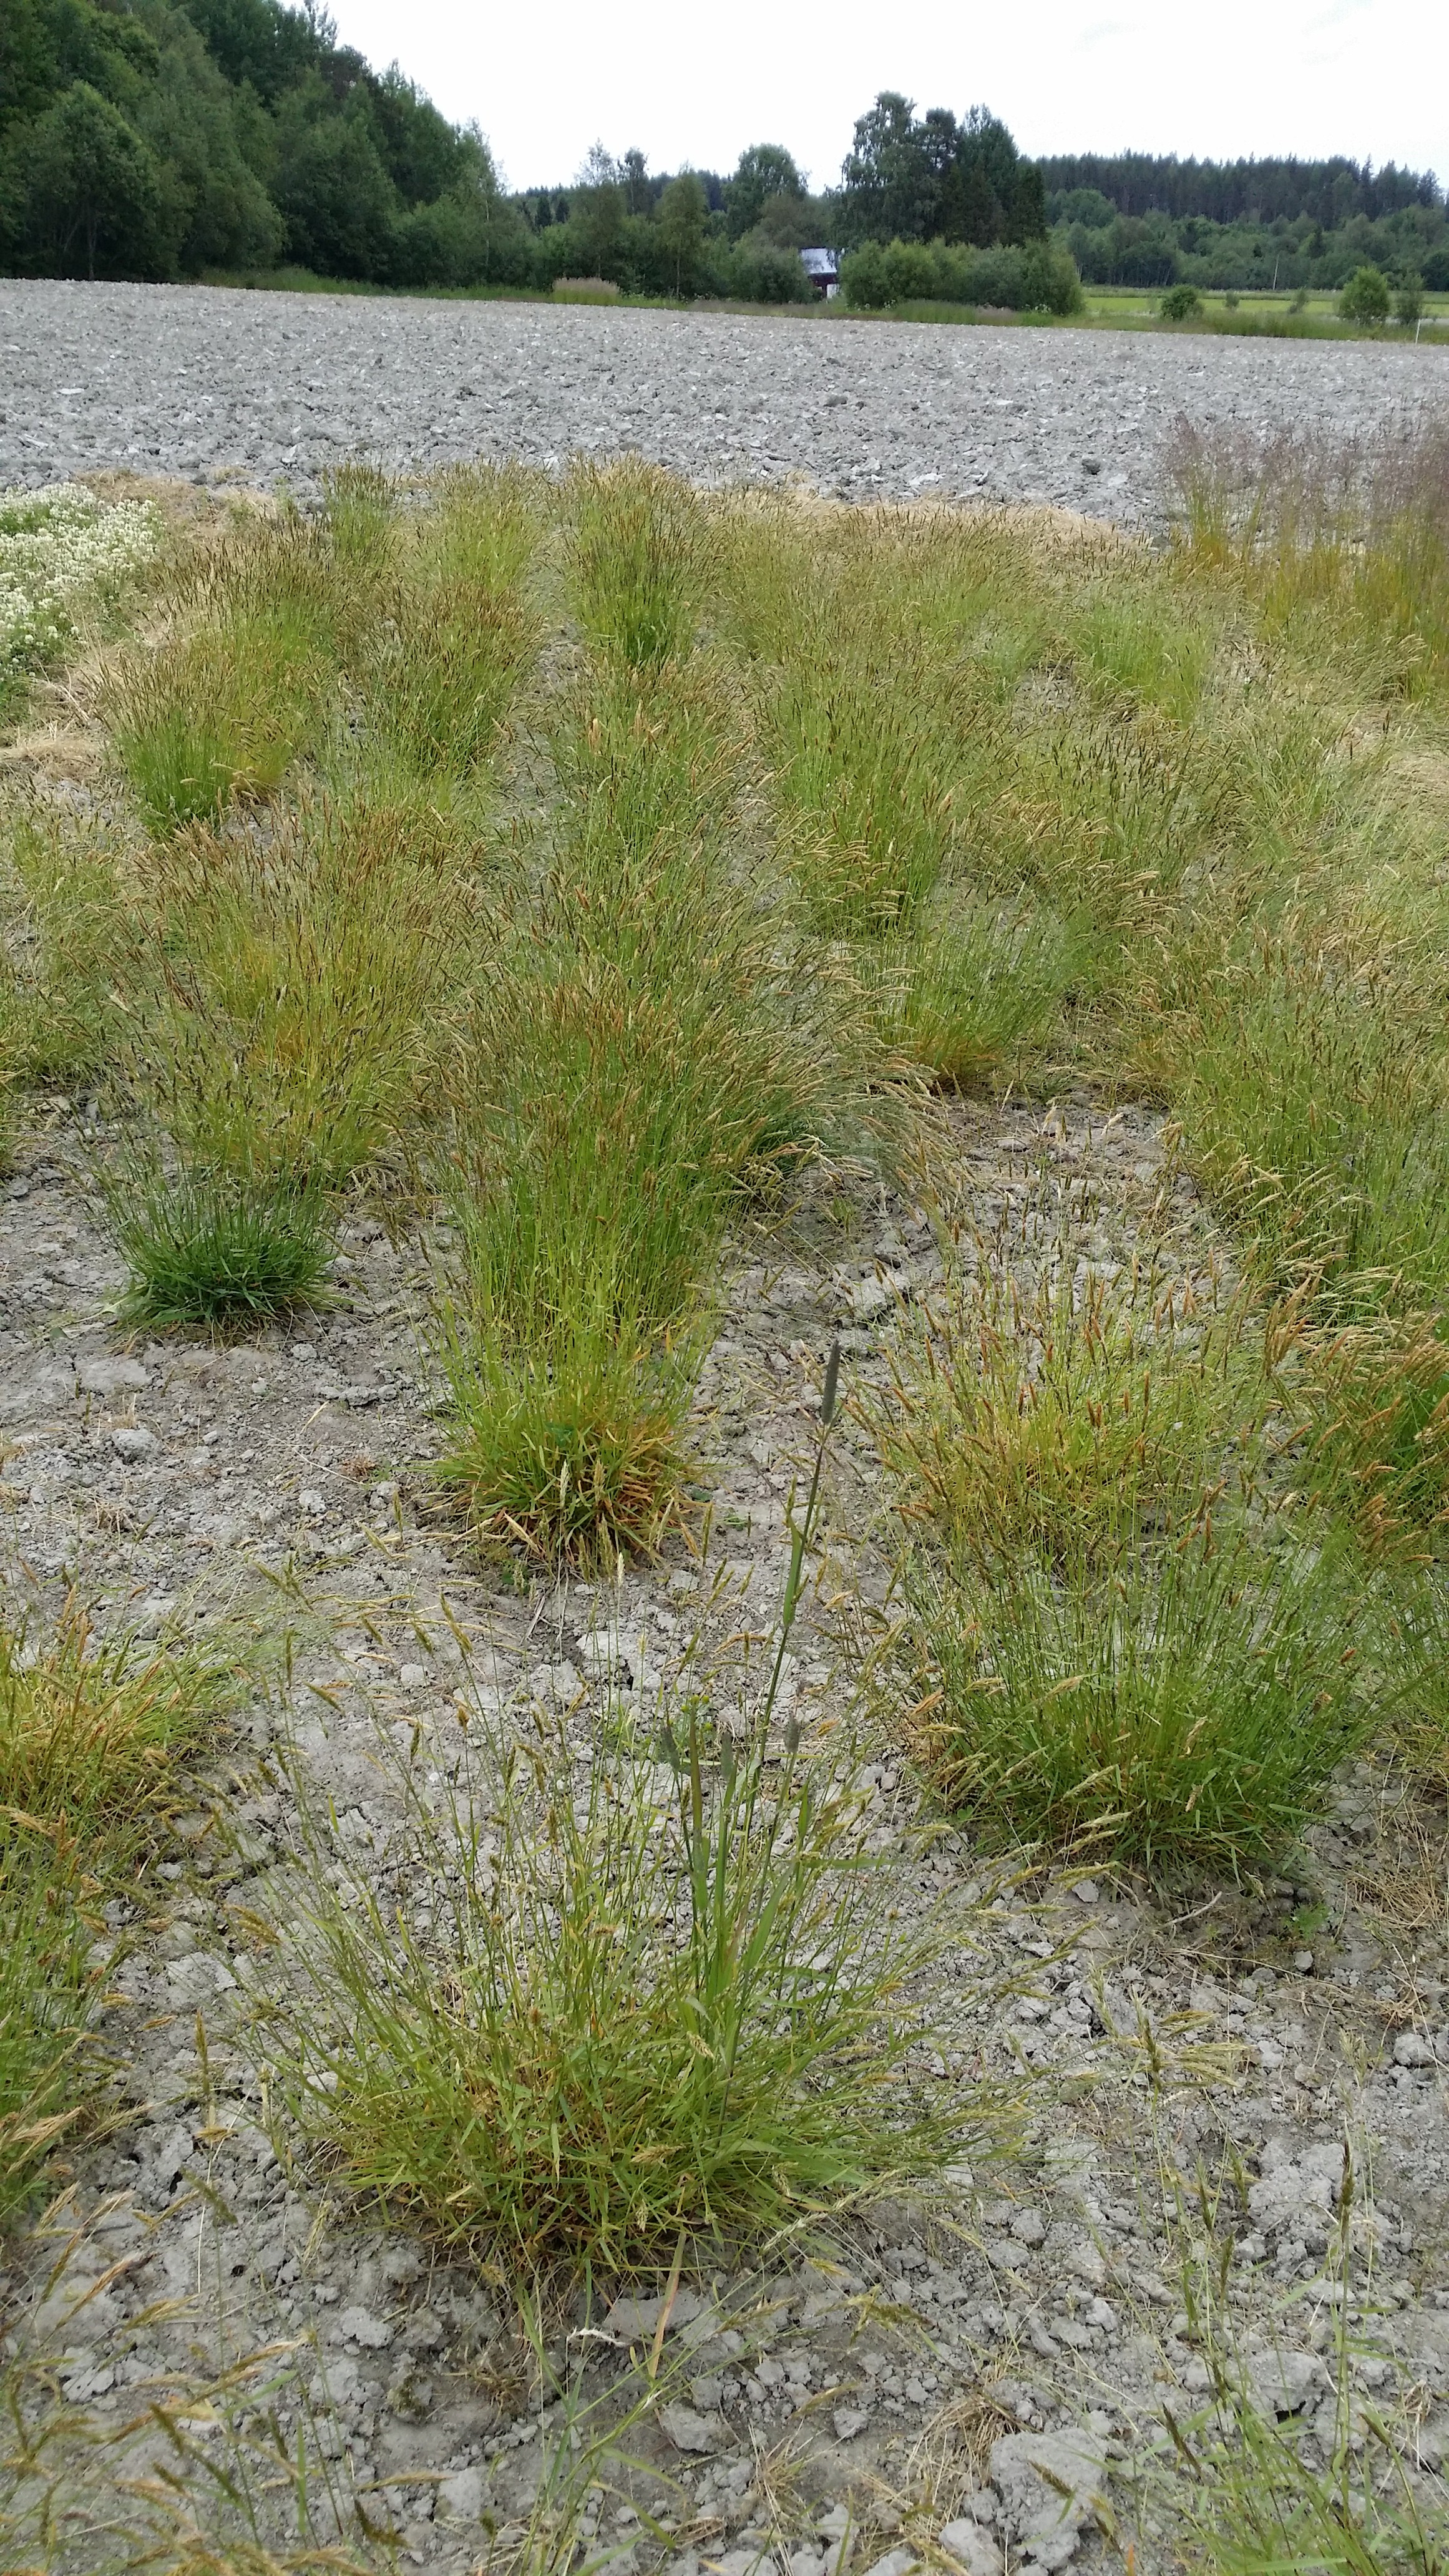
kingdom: Plantae
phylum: Tracheophyta
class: Liliopsida
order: Poales
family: Poaceae
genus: Anthoxanthum
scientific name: Anthoxanthum odoratum
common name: Sweet vernalgrass
